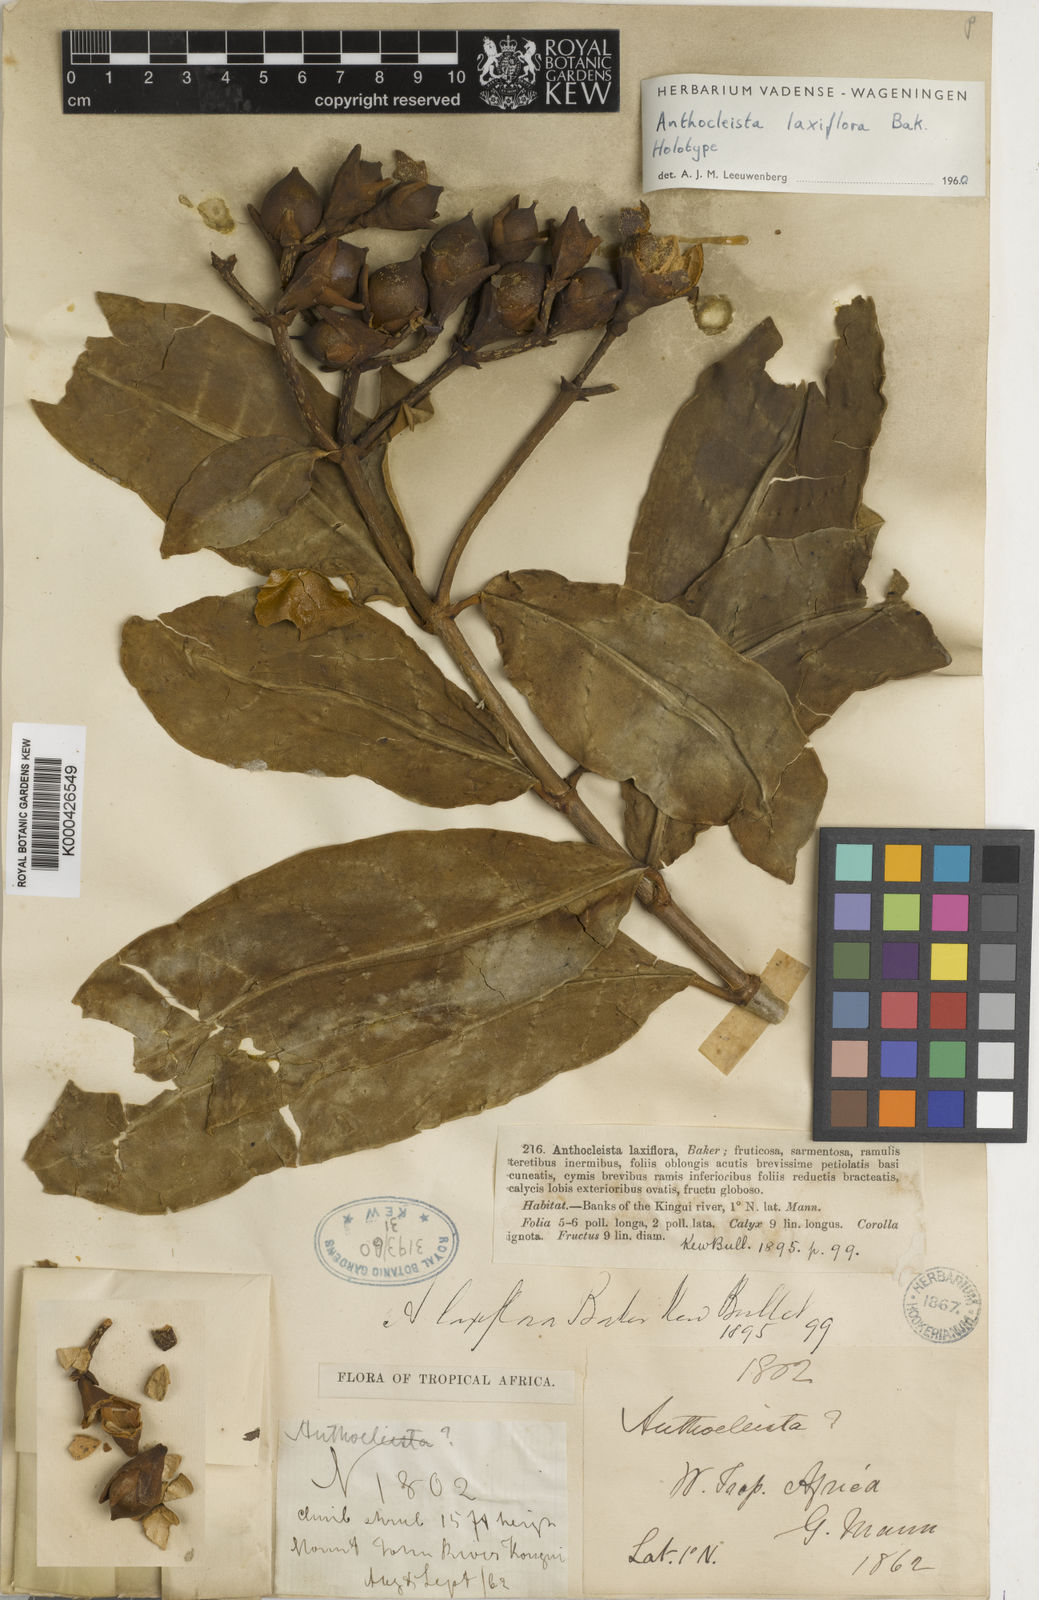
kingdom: Plantae
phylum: Tracheophyta
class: Magnoliopsida
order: Gentianales
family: Gentianaceae
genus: Anthocleista
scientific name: Anthocleista laxiflora
